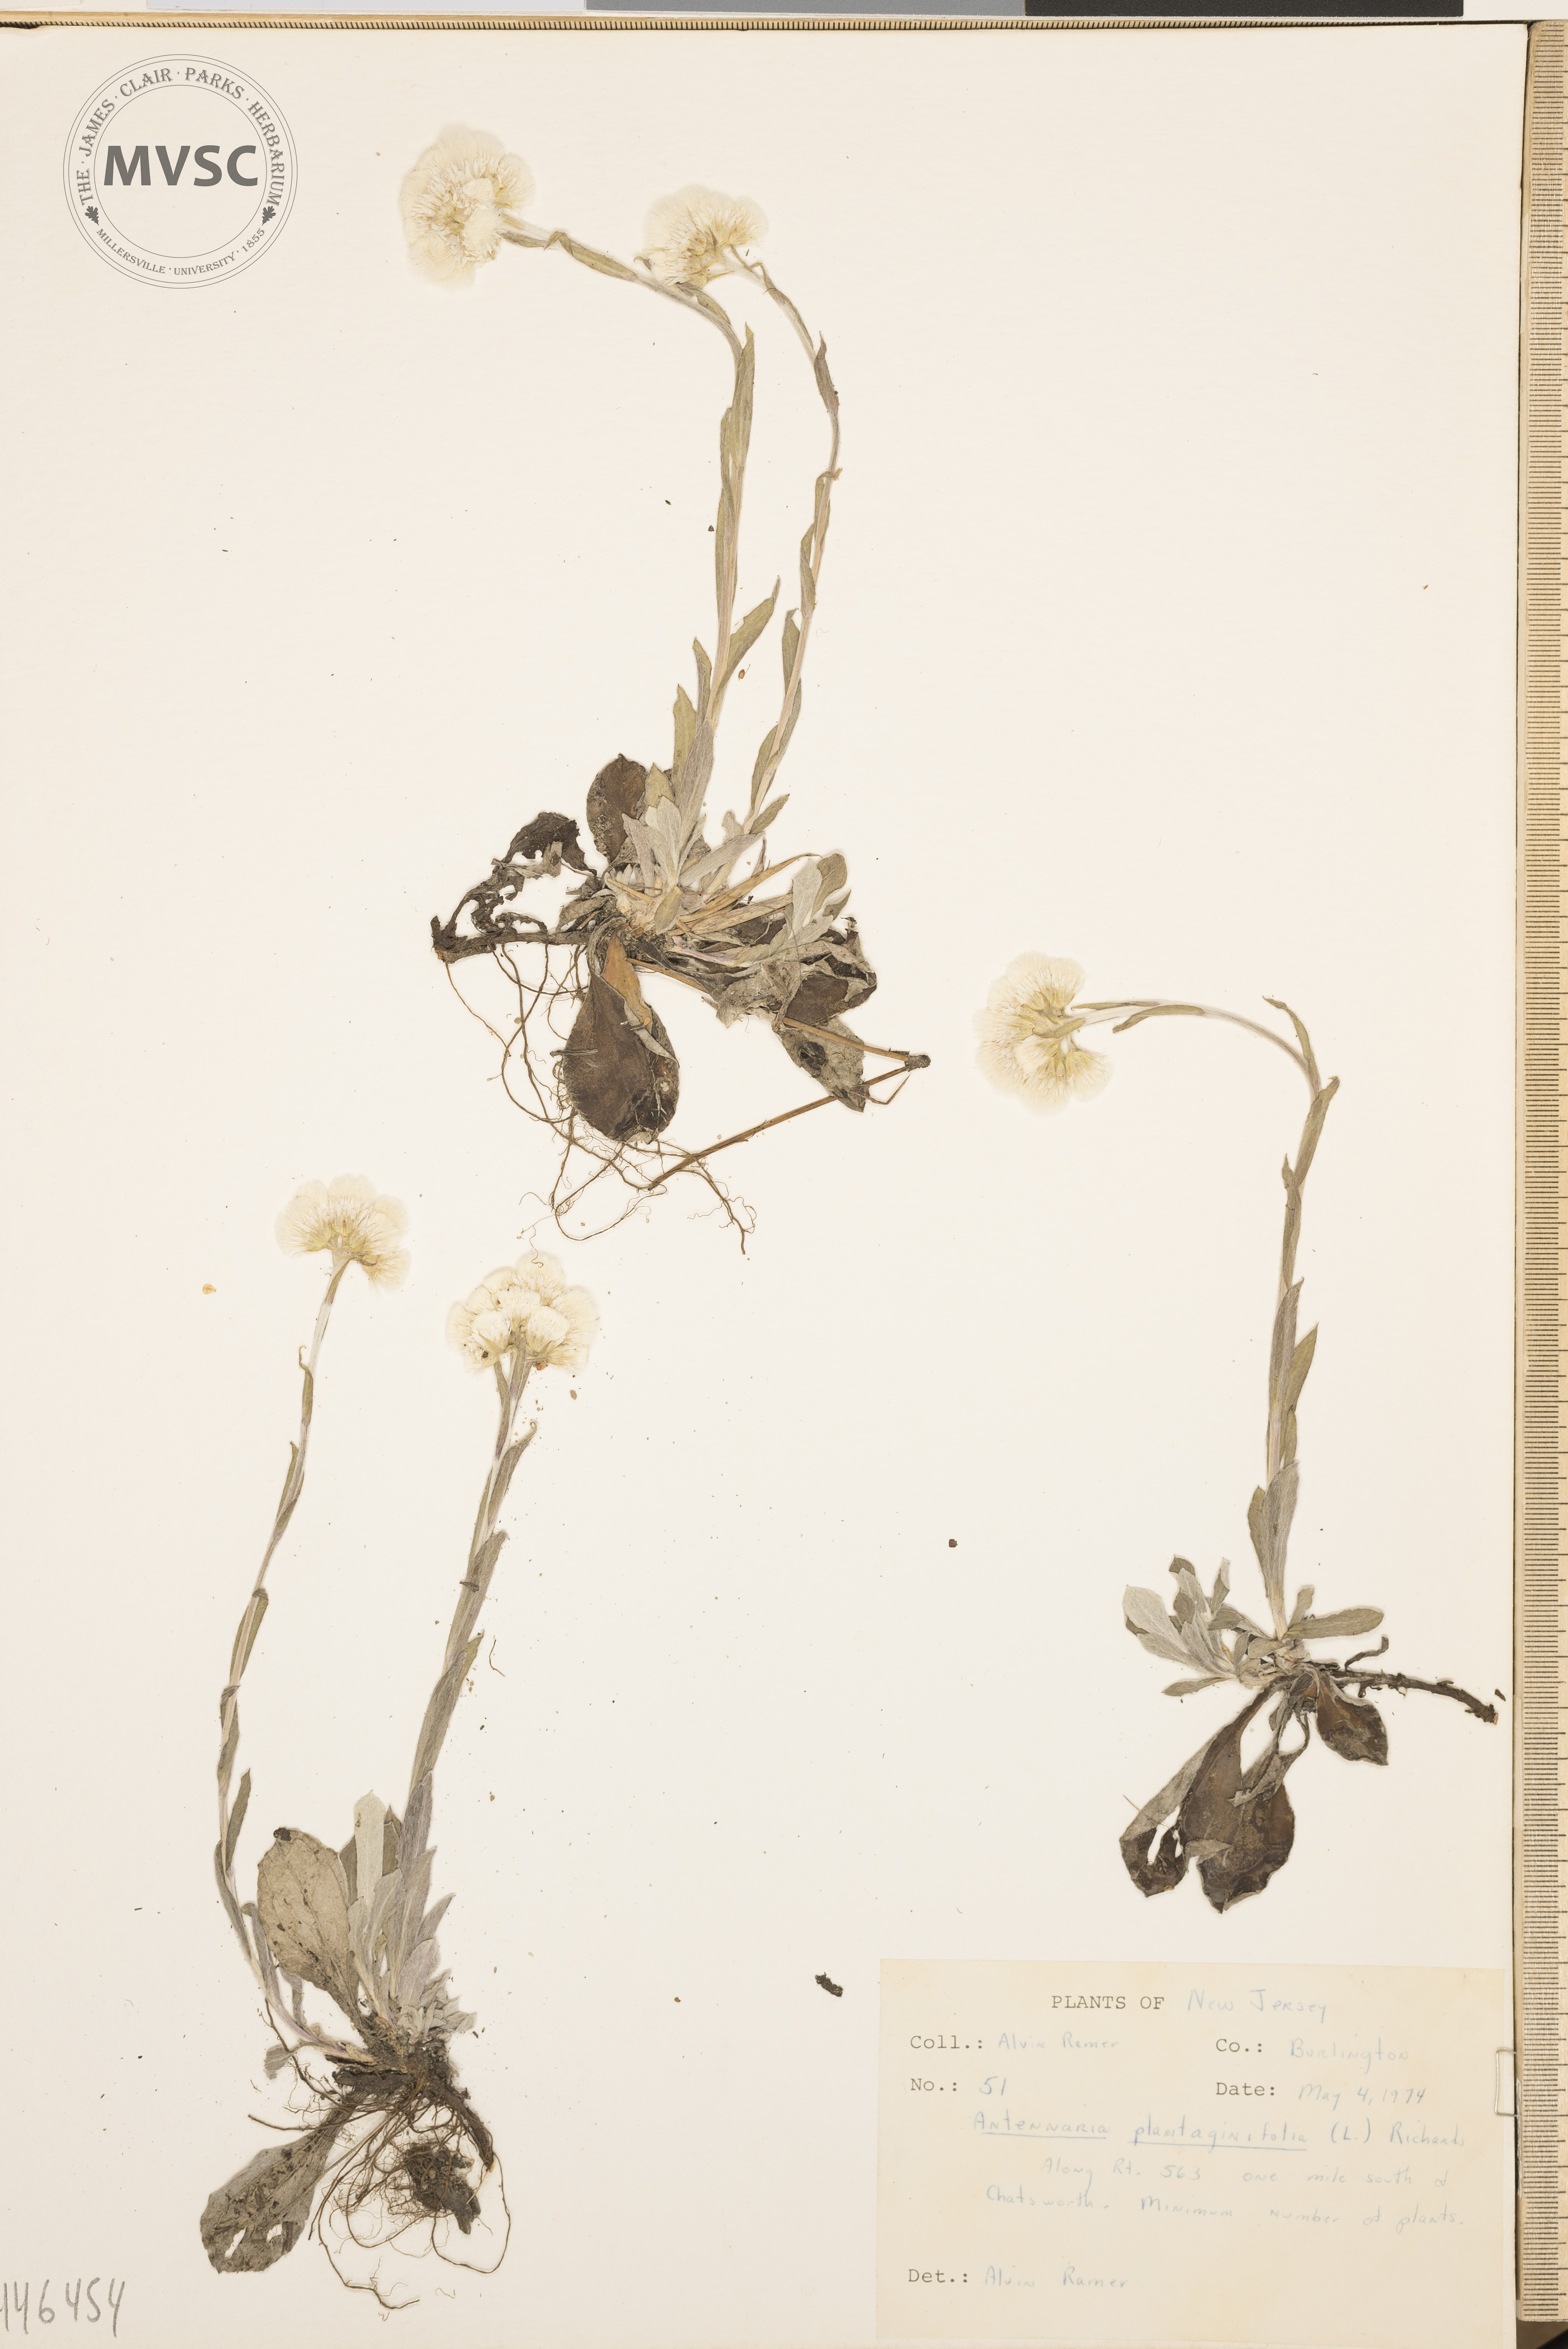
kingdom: Plantae
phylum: Tracheophyta
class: Magnoliopsida
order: Asterales
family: Asteraceae
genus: Antennaria
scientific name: Antennaria plantaginifolia
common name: Plantain-leaved pussytoes
